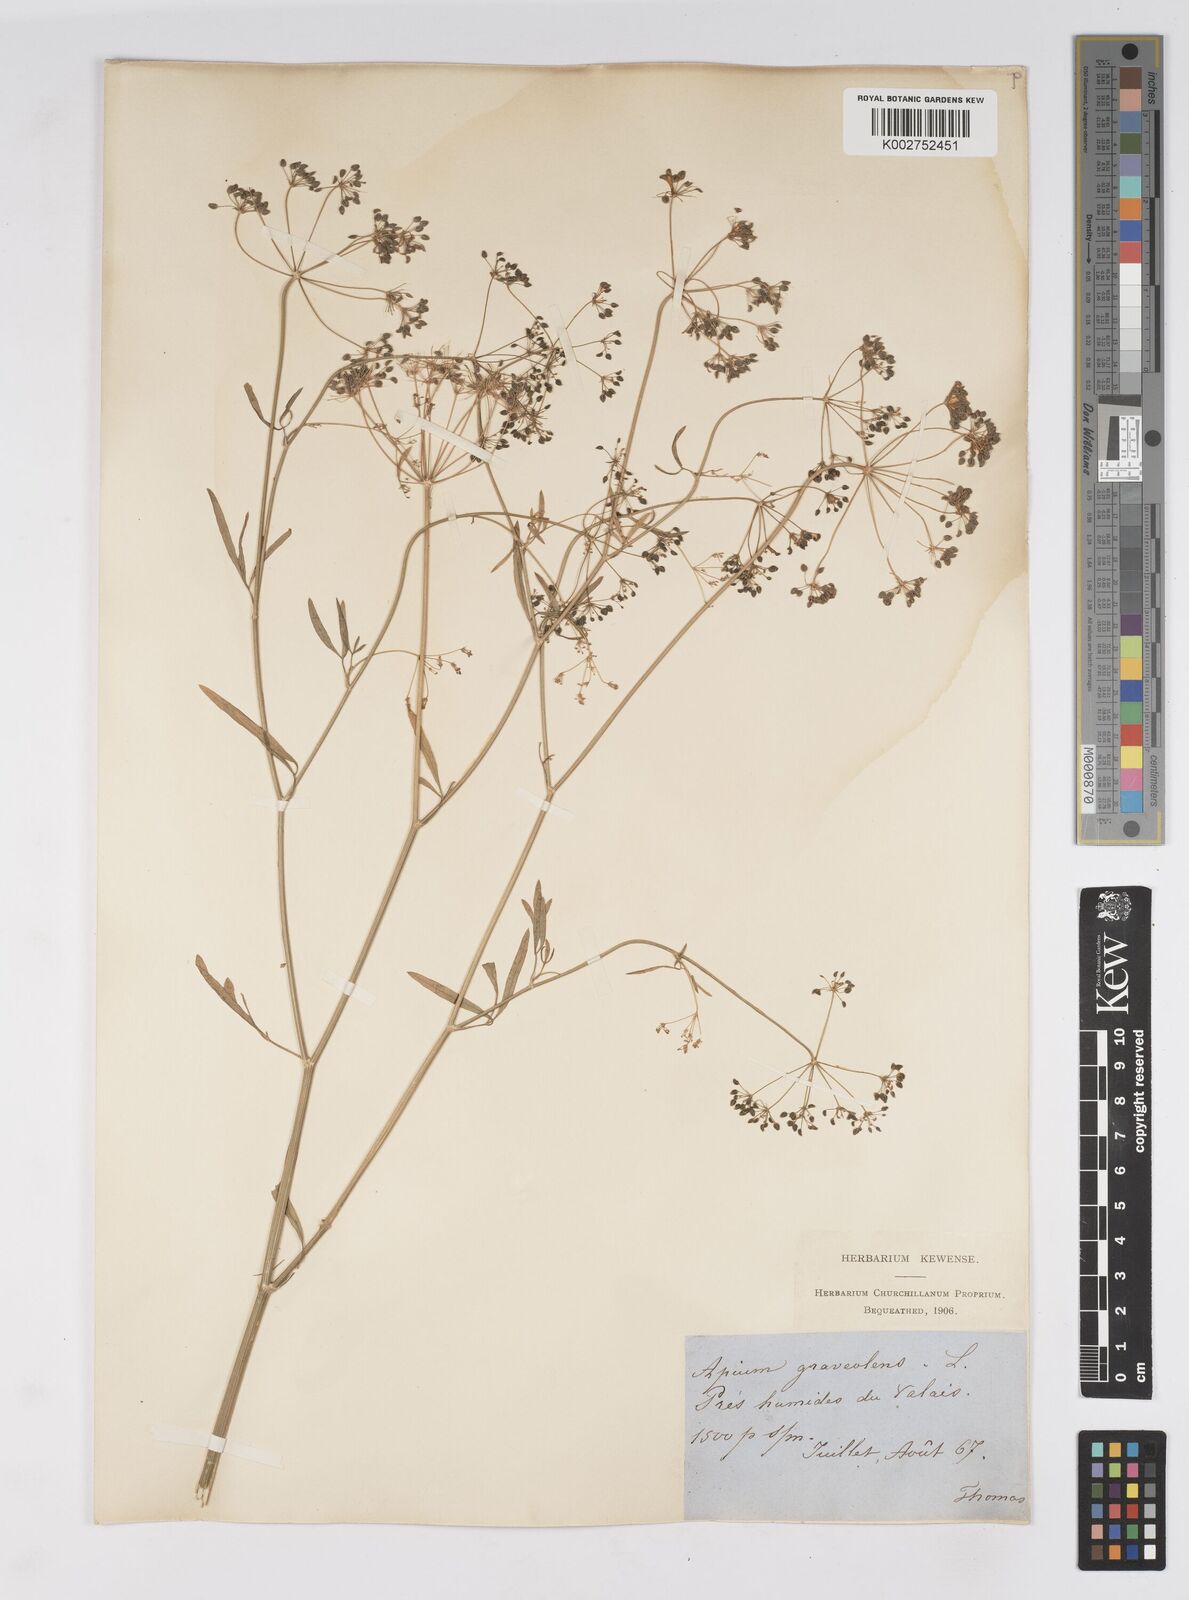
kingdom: Plantae
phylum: Tracheophyta
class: Magnoliopsida
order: Apiales
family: Apiaceae
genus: Apium
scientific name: Apium graveolens
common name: Wild celery
